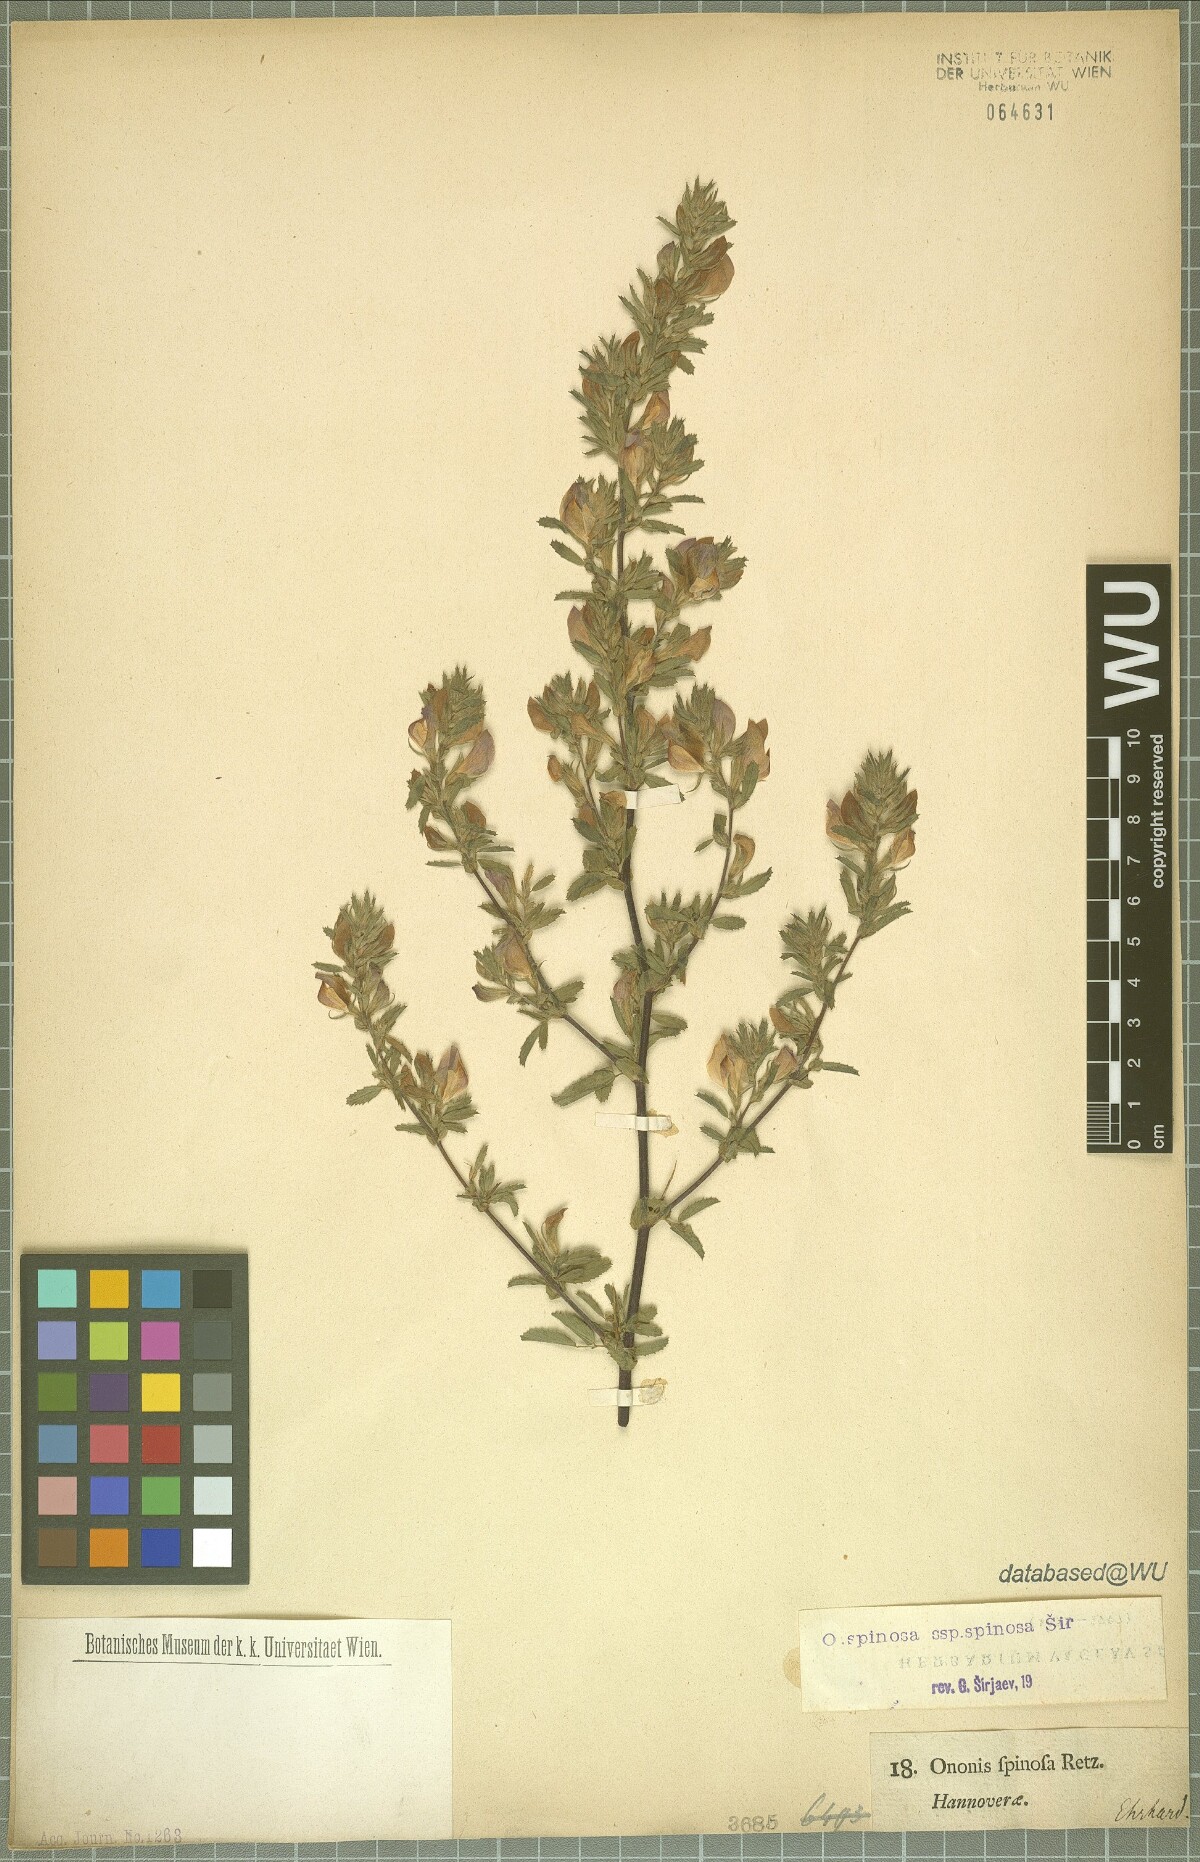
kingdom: Plantae
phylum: Tracheophyta
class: Magnoliopsida
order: Fabales
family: Fabaceae
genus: Ononis
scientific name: Ononis spinosa
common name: Spiny restharrow
